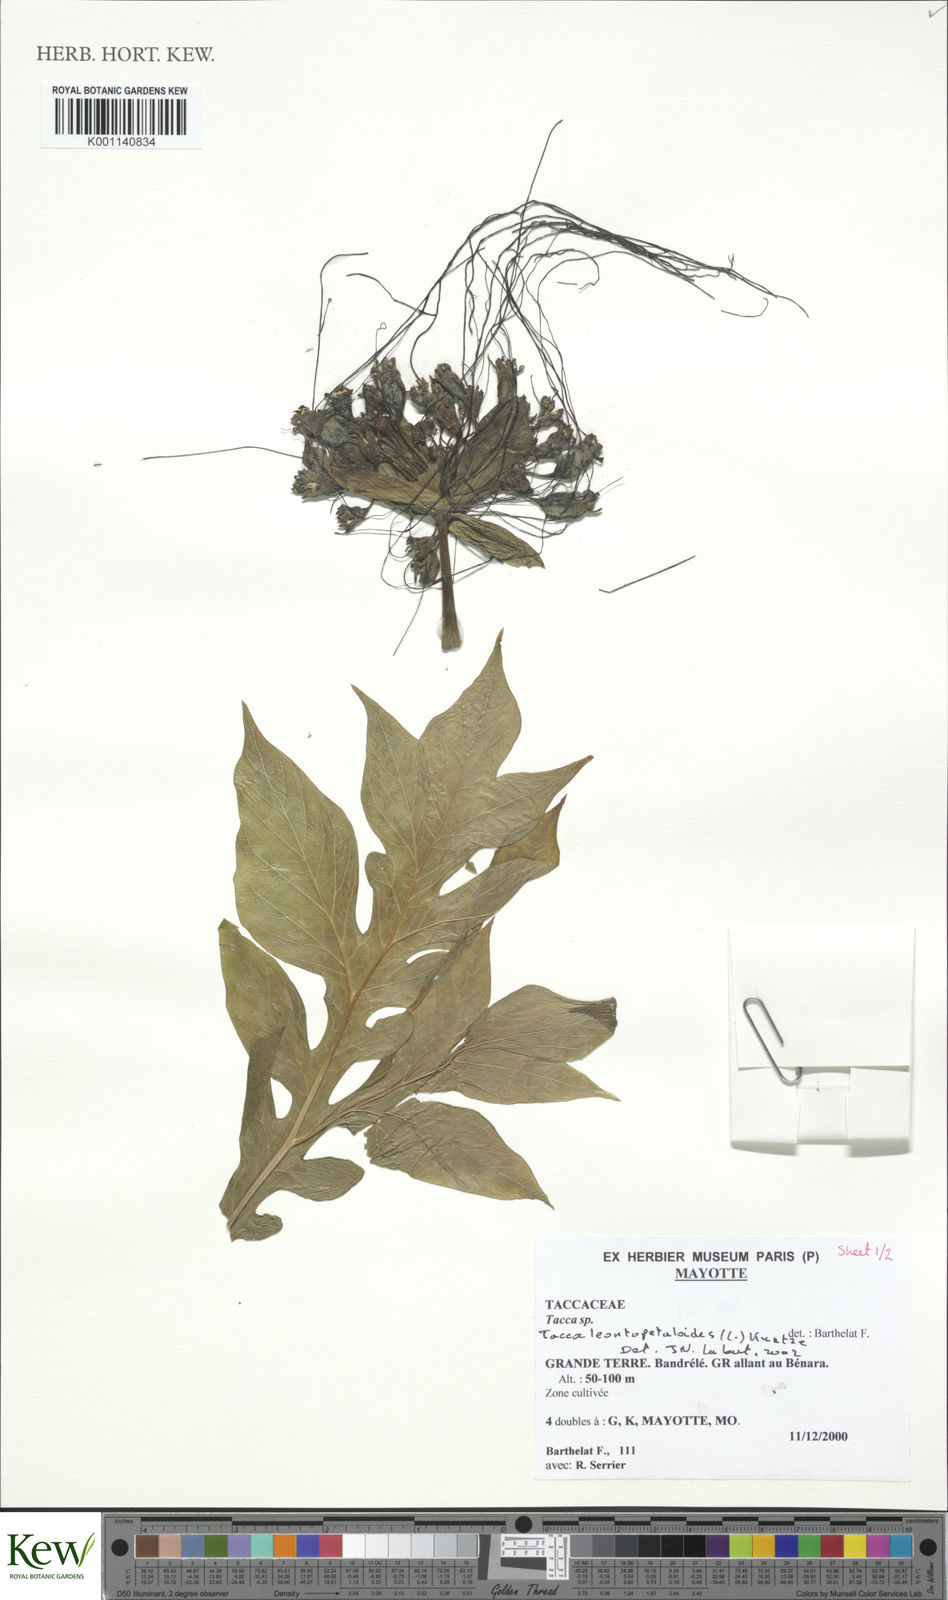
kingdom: Plantae
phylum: Tracheophyta
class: Liliopsida
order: Dioscoreales
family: Dioscoreaceae
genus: Tacca
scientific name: Tacca leontopetaloides
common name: Arrowroot
